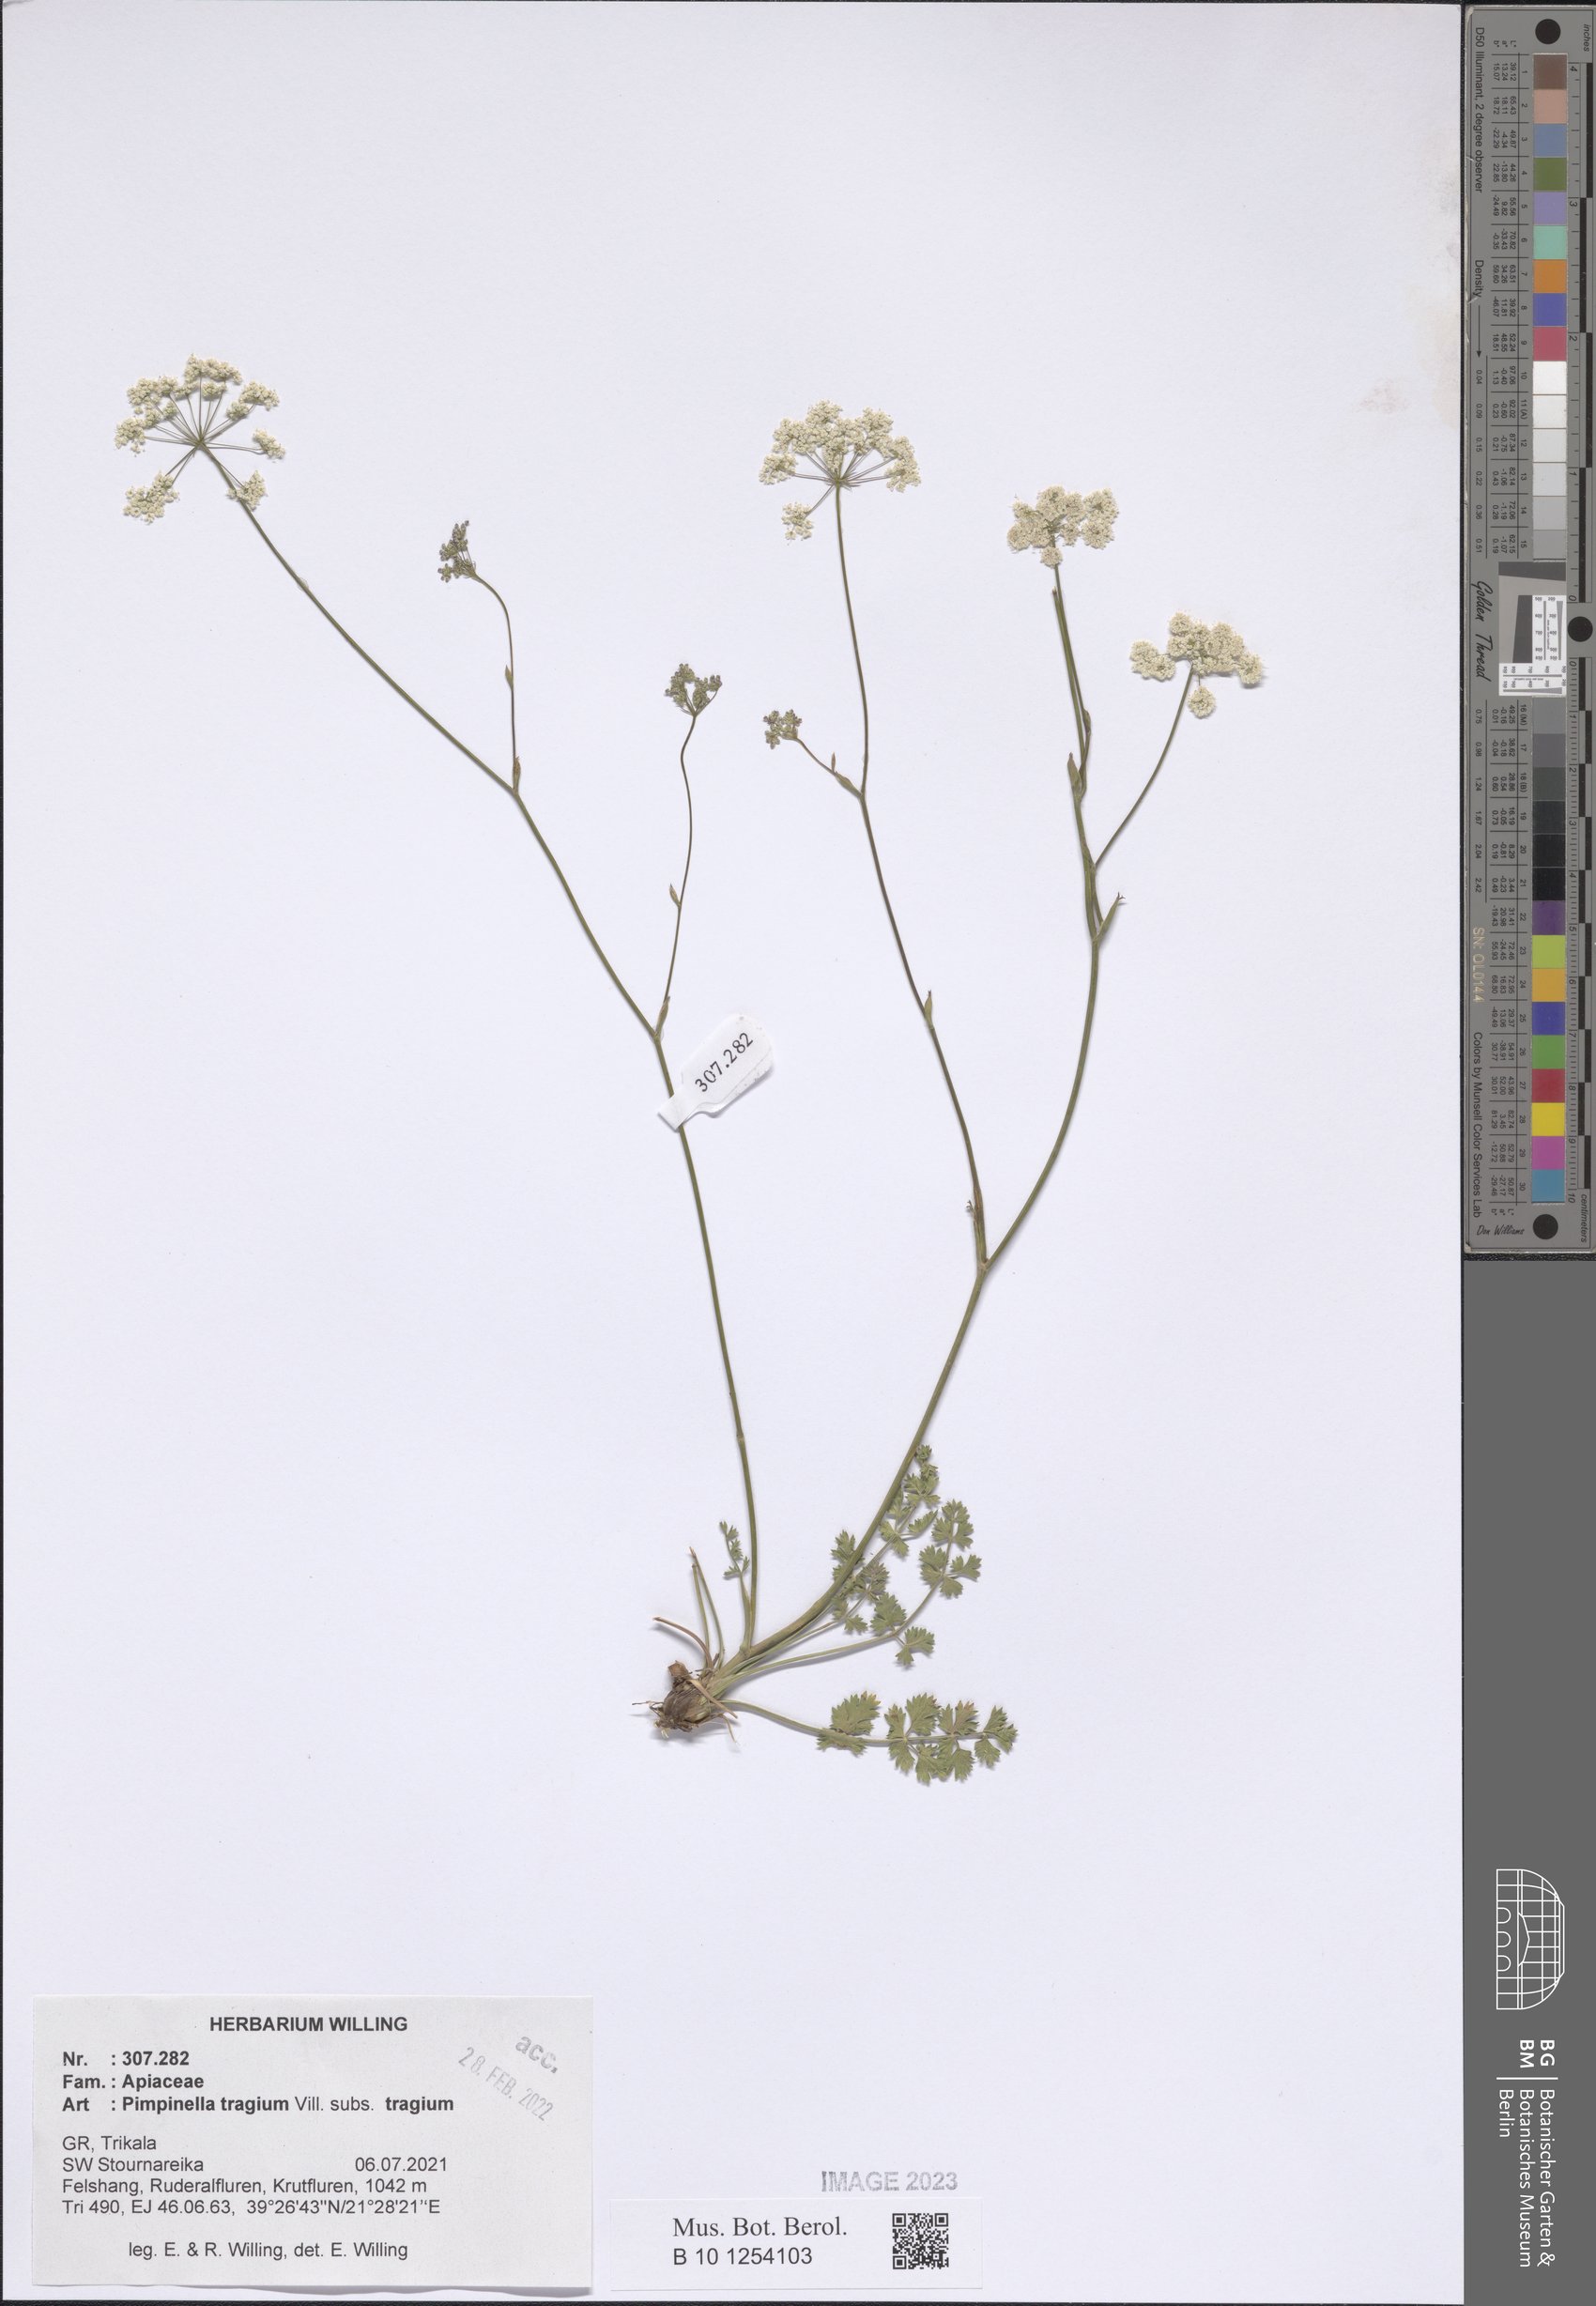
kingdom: Plantae
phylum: Tracheophyta
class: Magnoliopsida
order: Apiales
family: Apiaceae
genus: Pimpinella
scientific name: Pimpinella tragium
